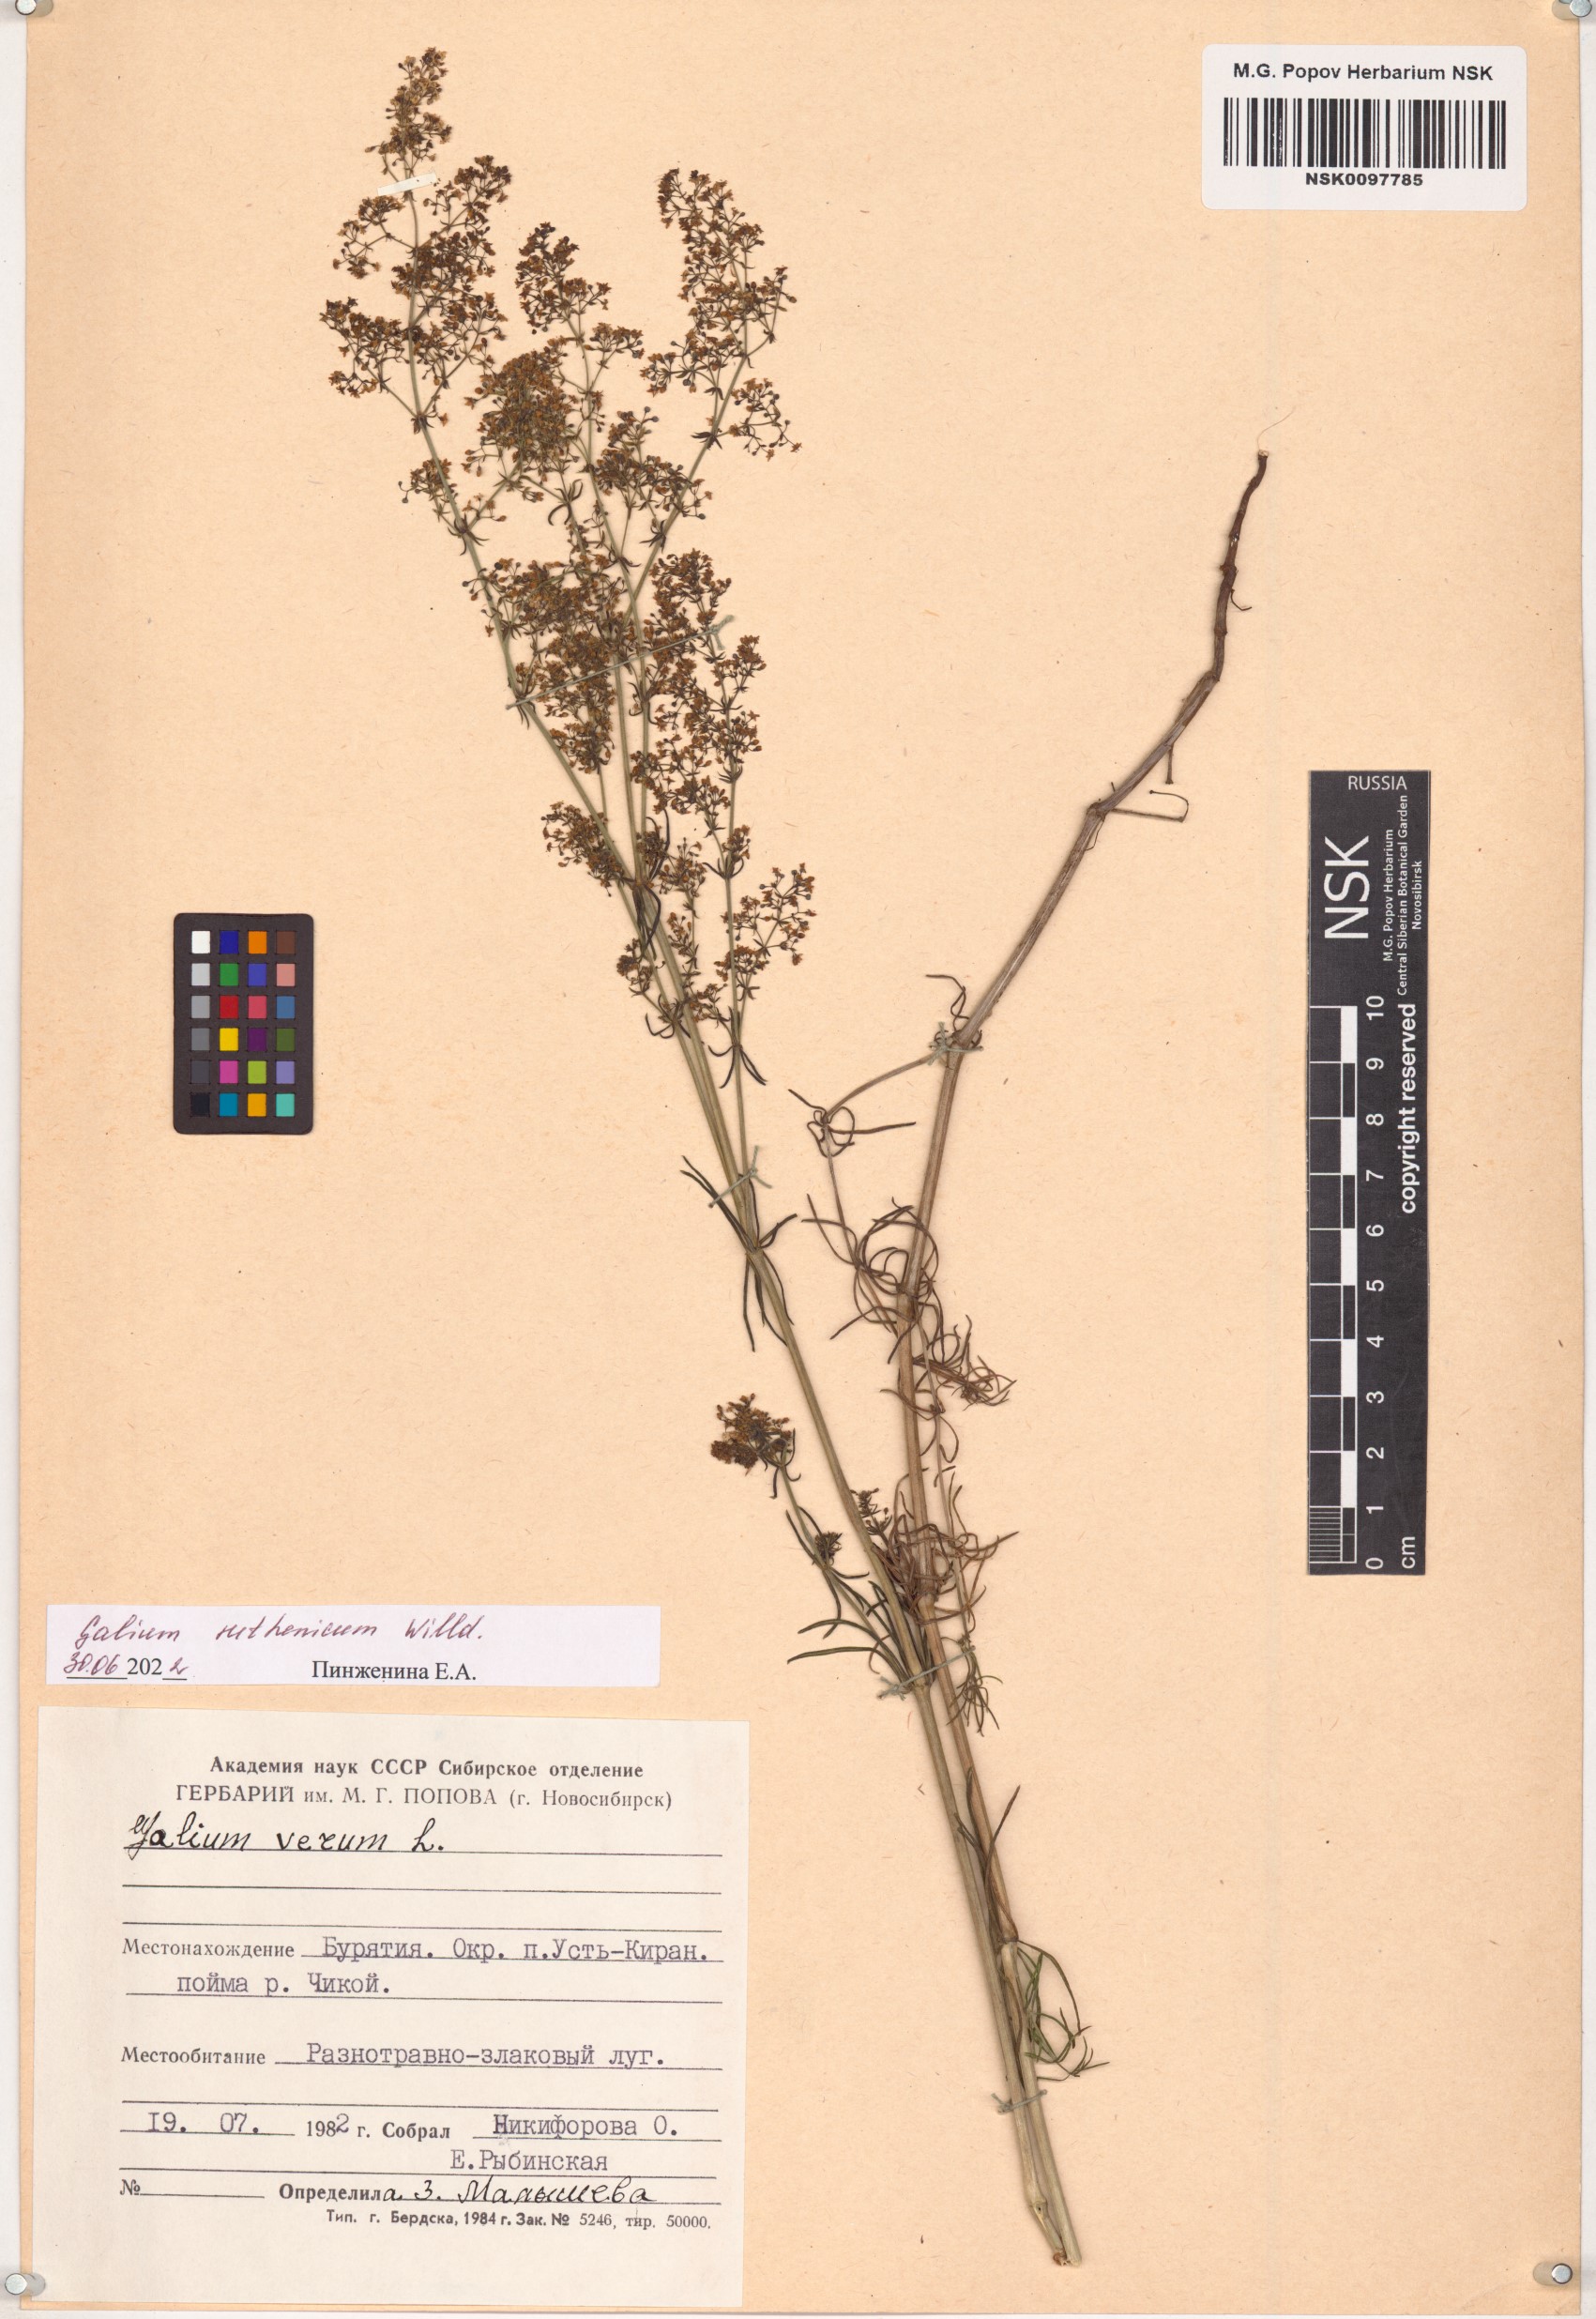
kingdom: Plantae
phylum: Tracheophyta
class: Magnoliopsida
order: Gentianales
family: Rubiaceae
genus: Galium
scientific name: Galium verum
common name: Lady's bedstraw
